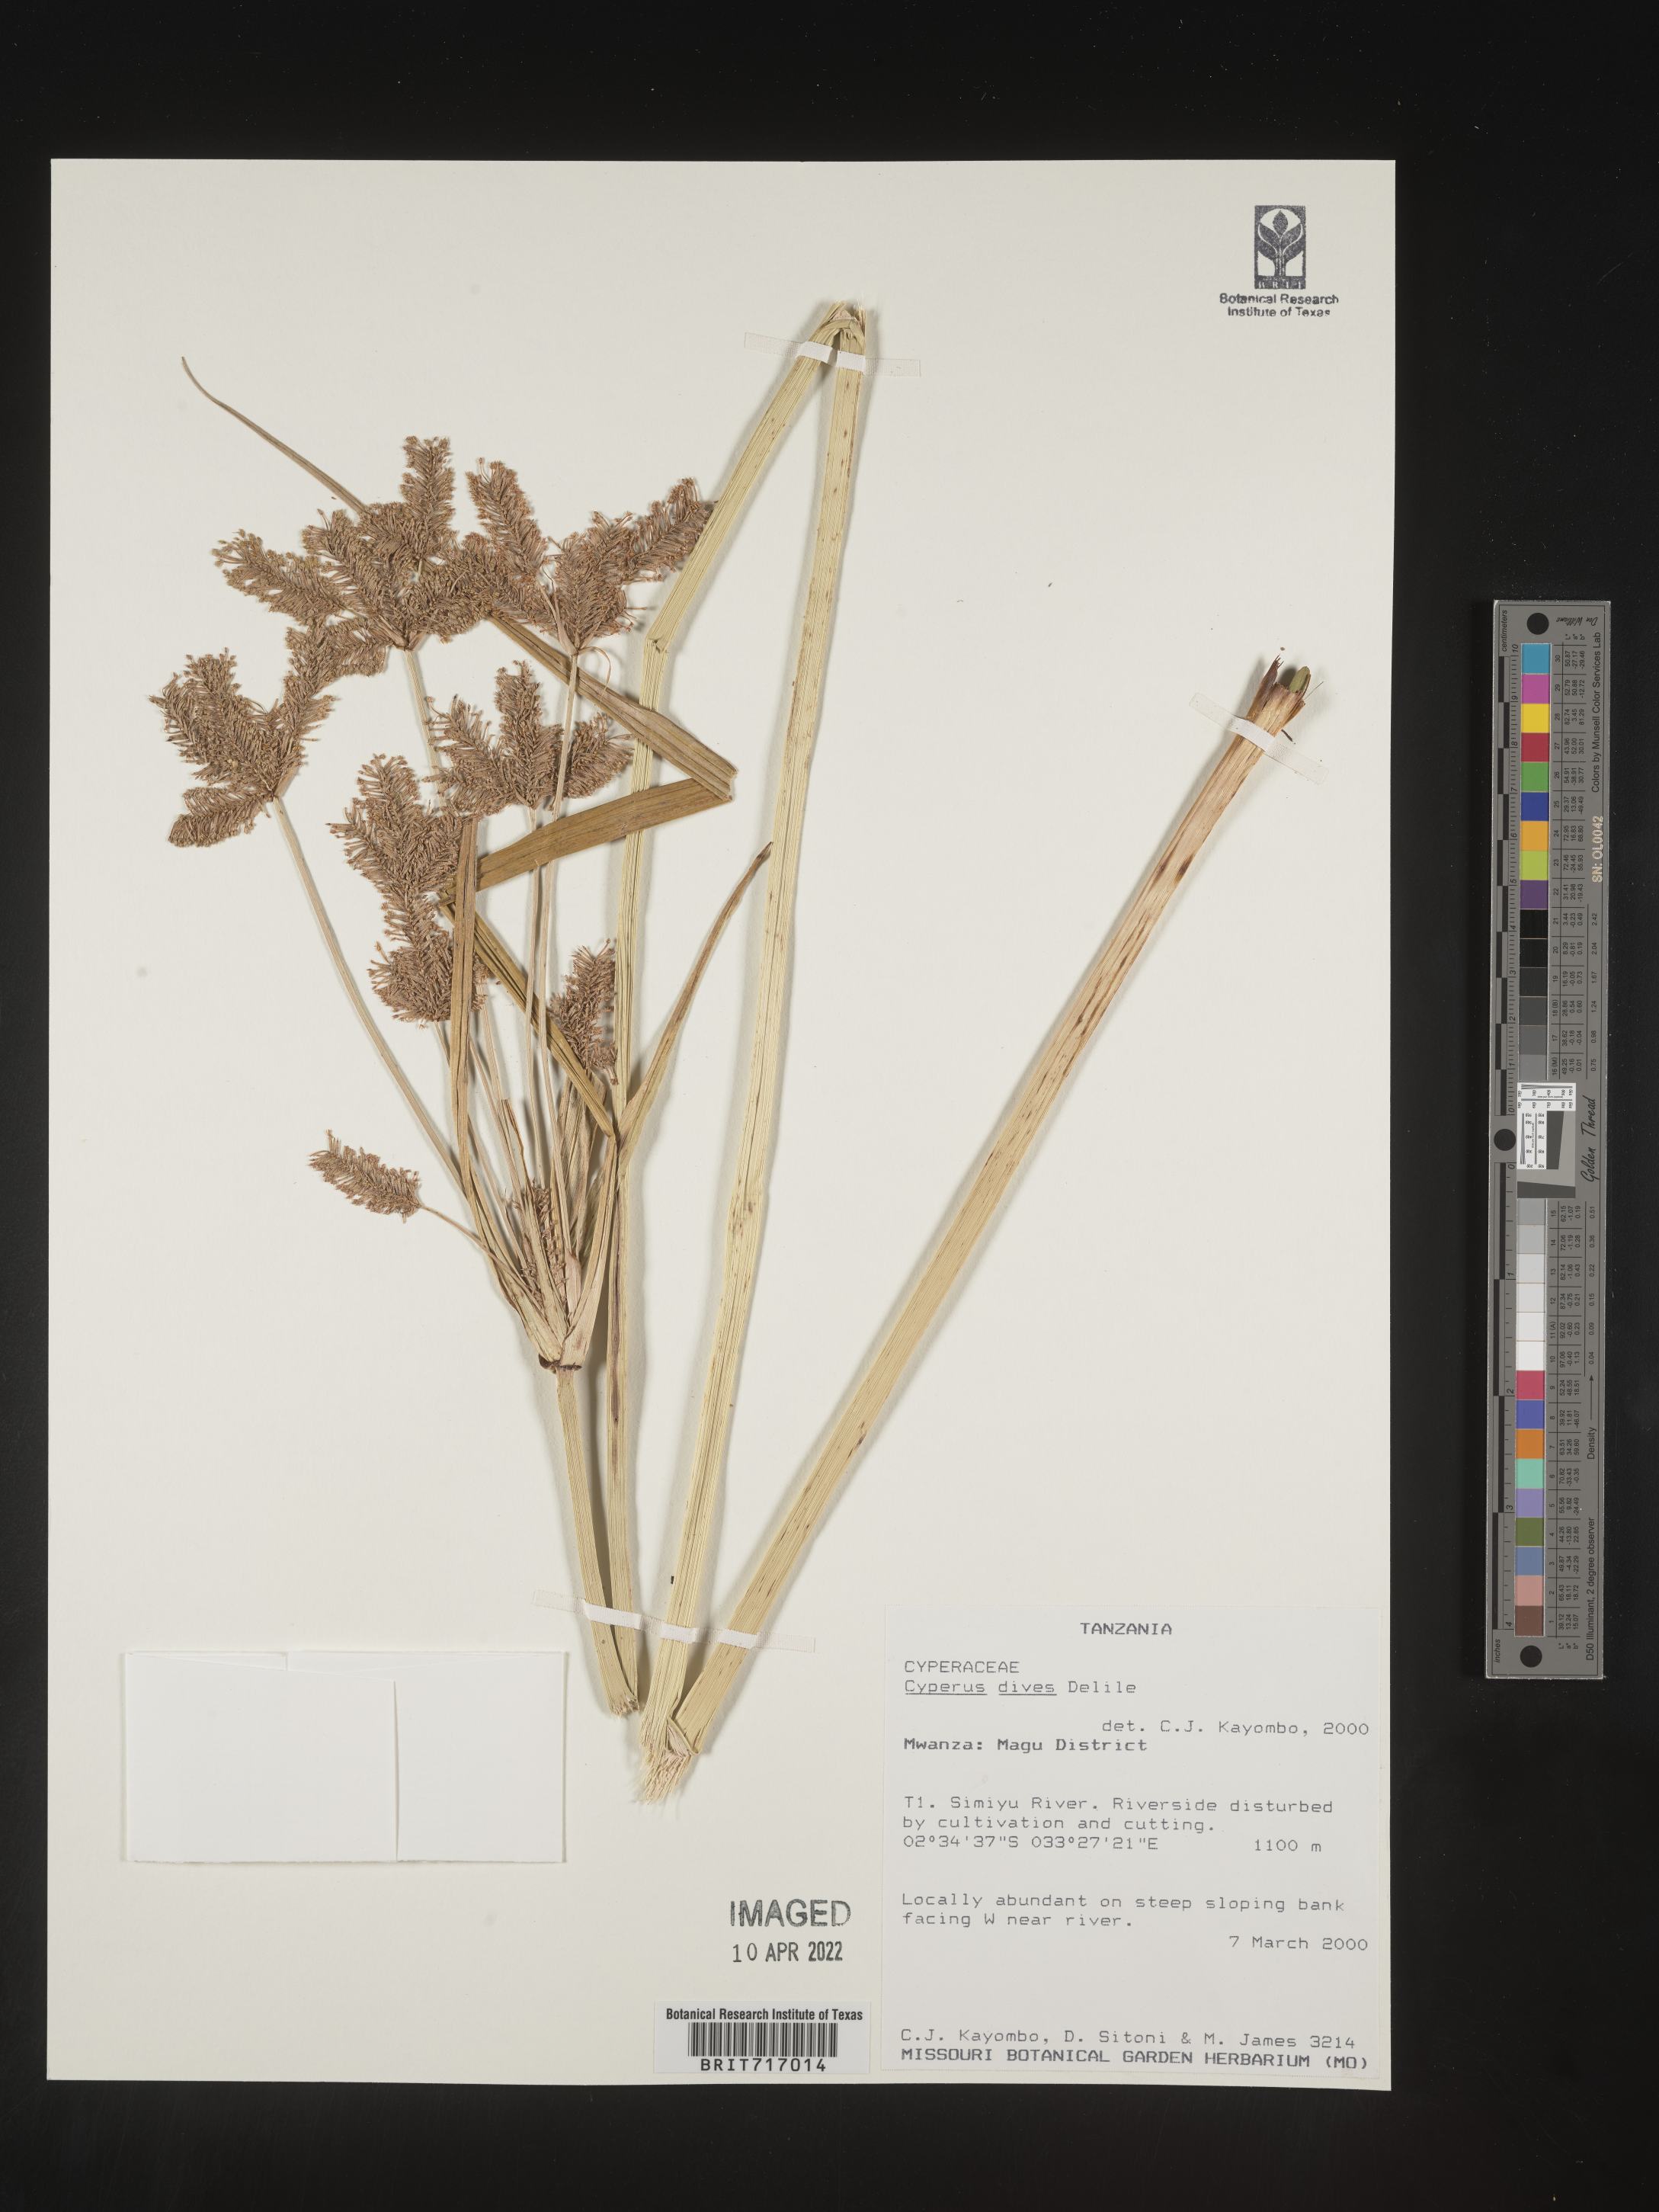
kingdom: Plantae
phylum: Tracheophyta
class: Liliopsida
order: Poales
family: Cyperaceae
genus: Cyperus
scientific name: Cyperus
